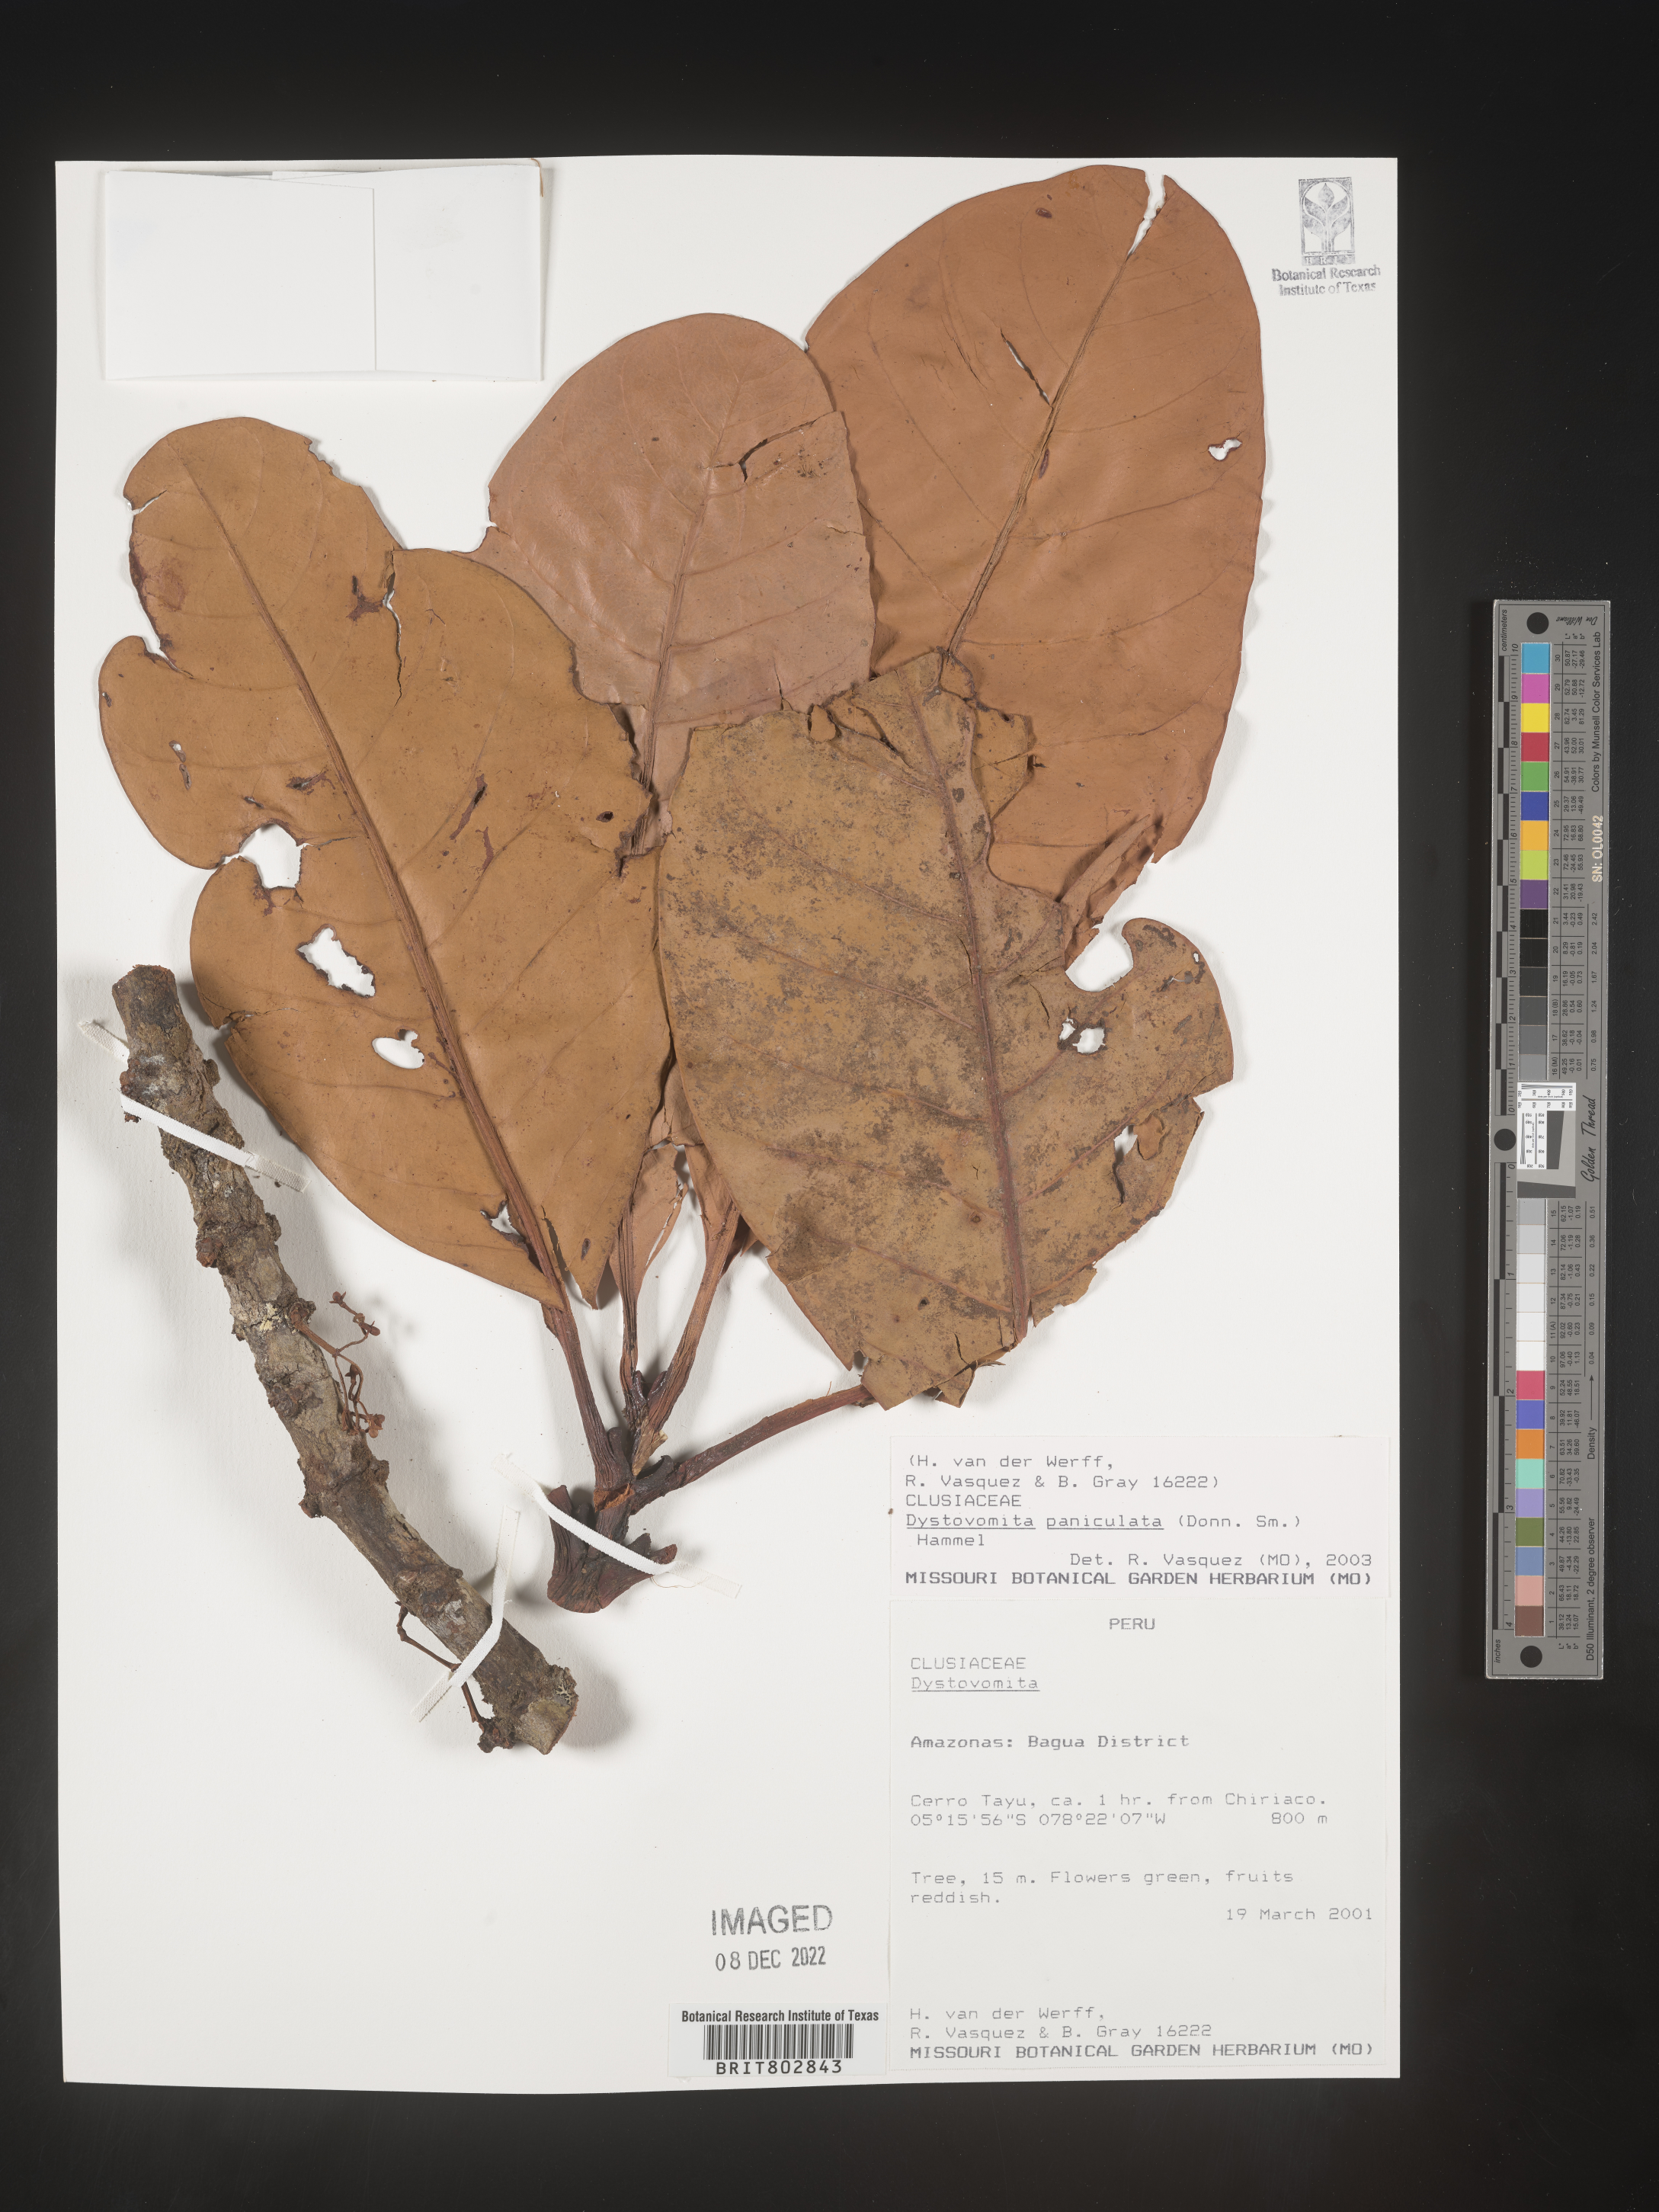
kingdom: Plantae
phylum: Tracheophyta
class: Magnoliopsida
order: Malpighiales
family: Clusiaceae
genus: Dystovomita
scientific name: Dystovomita
